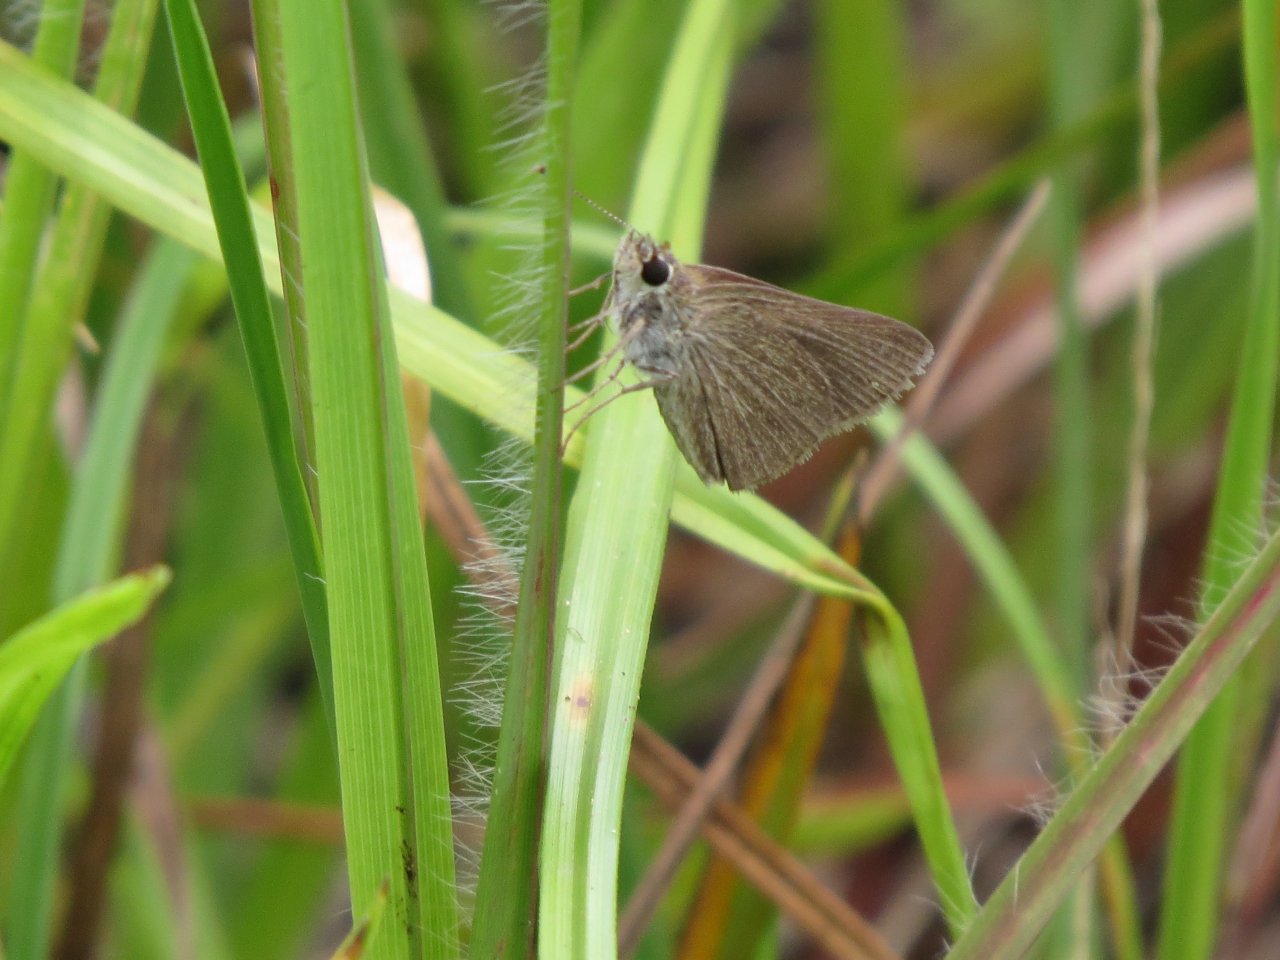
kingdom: Animalia
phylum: Arthropoda
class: Insecta
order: Lepidoptera
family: Hesperiidae
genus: Nastra
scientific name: Nastra lherminier
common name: Swarthy Skipper
